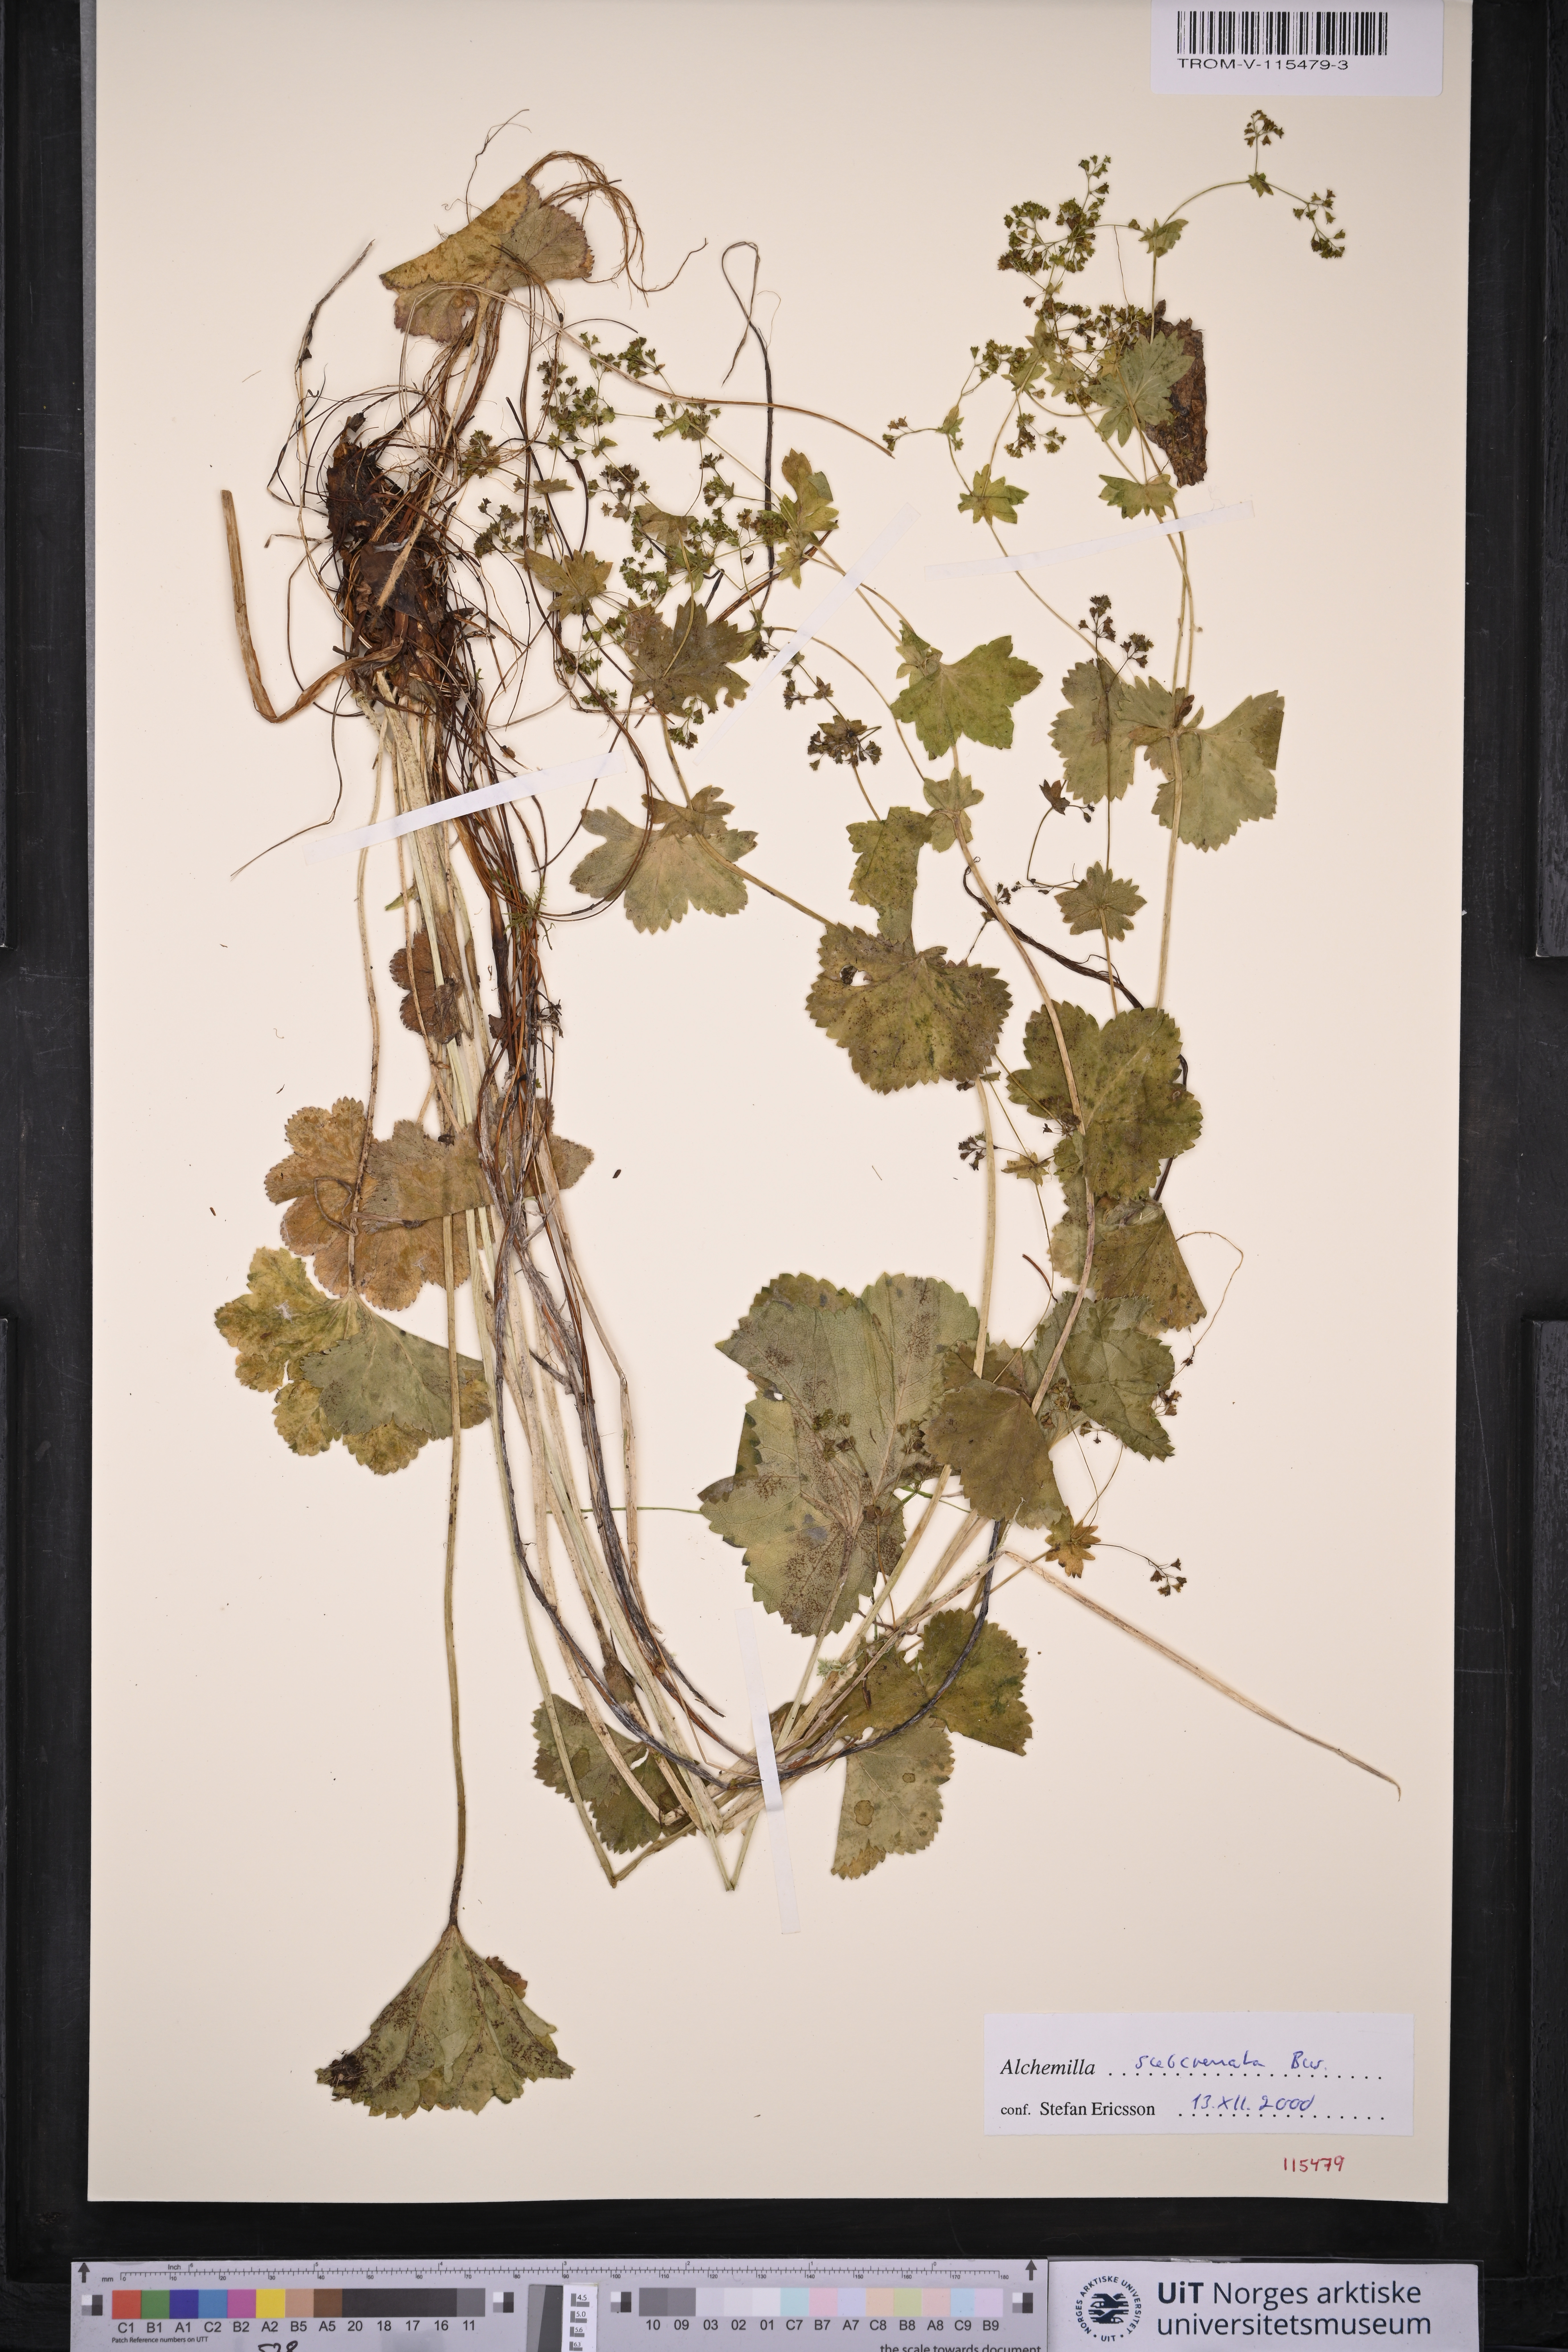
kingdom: Plantae
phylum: Tracheophyta
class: Magnoliopsida
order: Rosales
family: Rosaceae
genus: Alchemilla
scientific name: Alchemilla subcrenata
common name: Broadtooth lady's mantle
